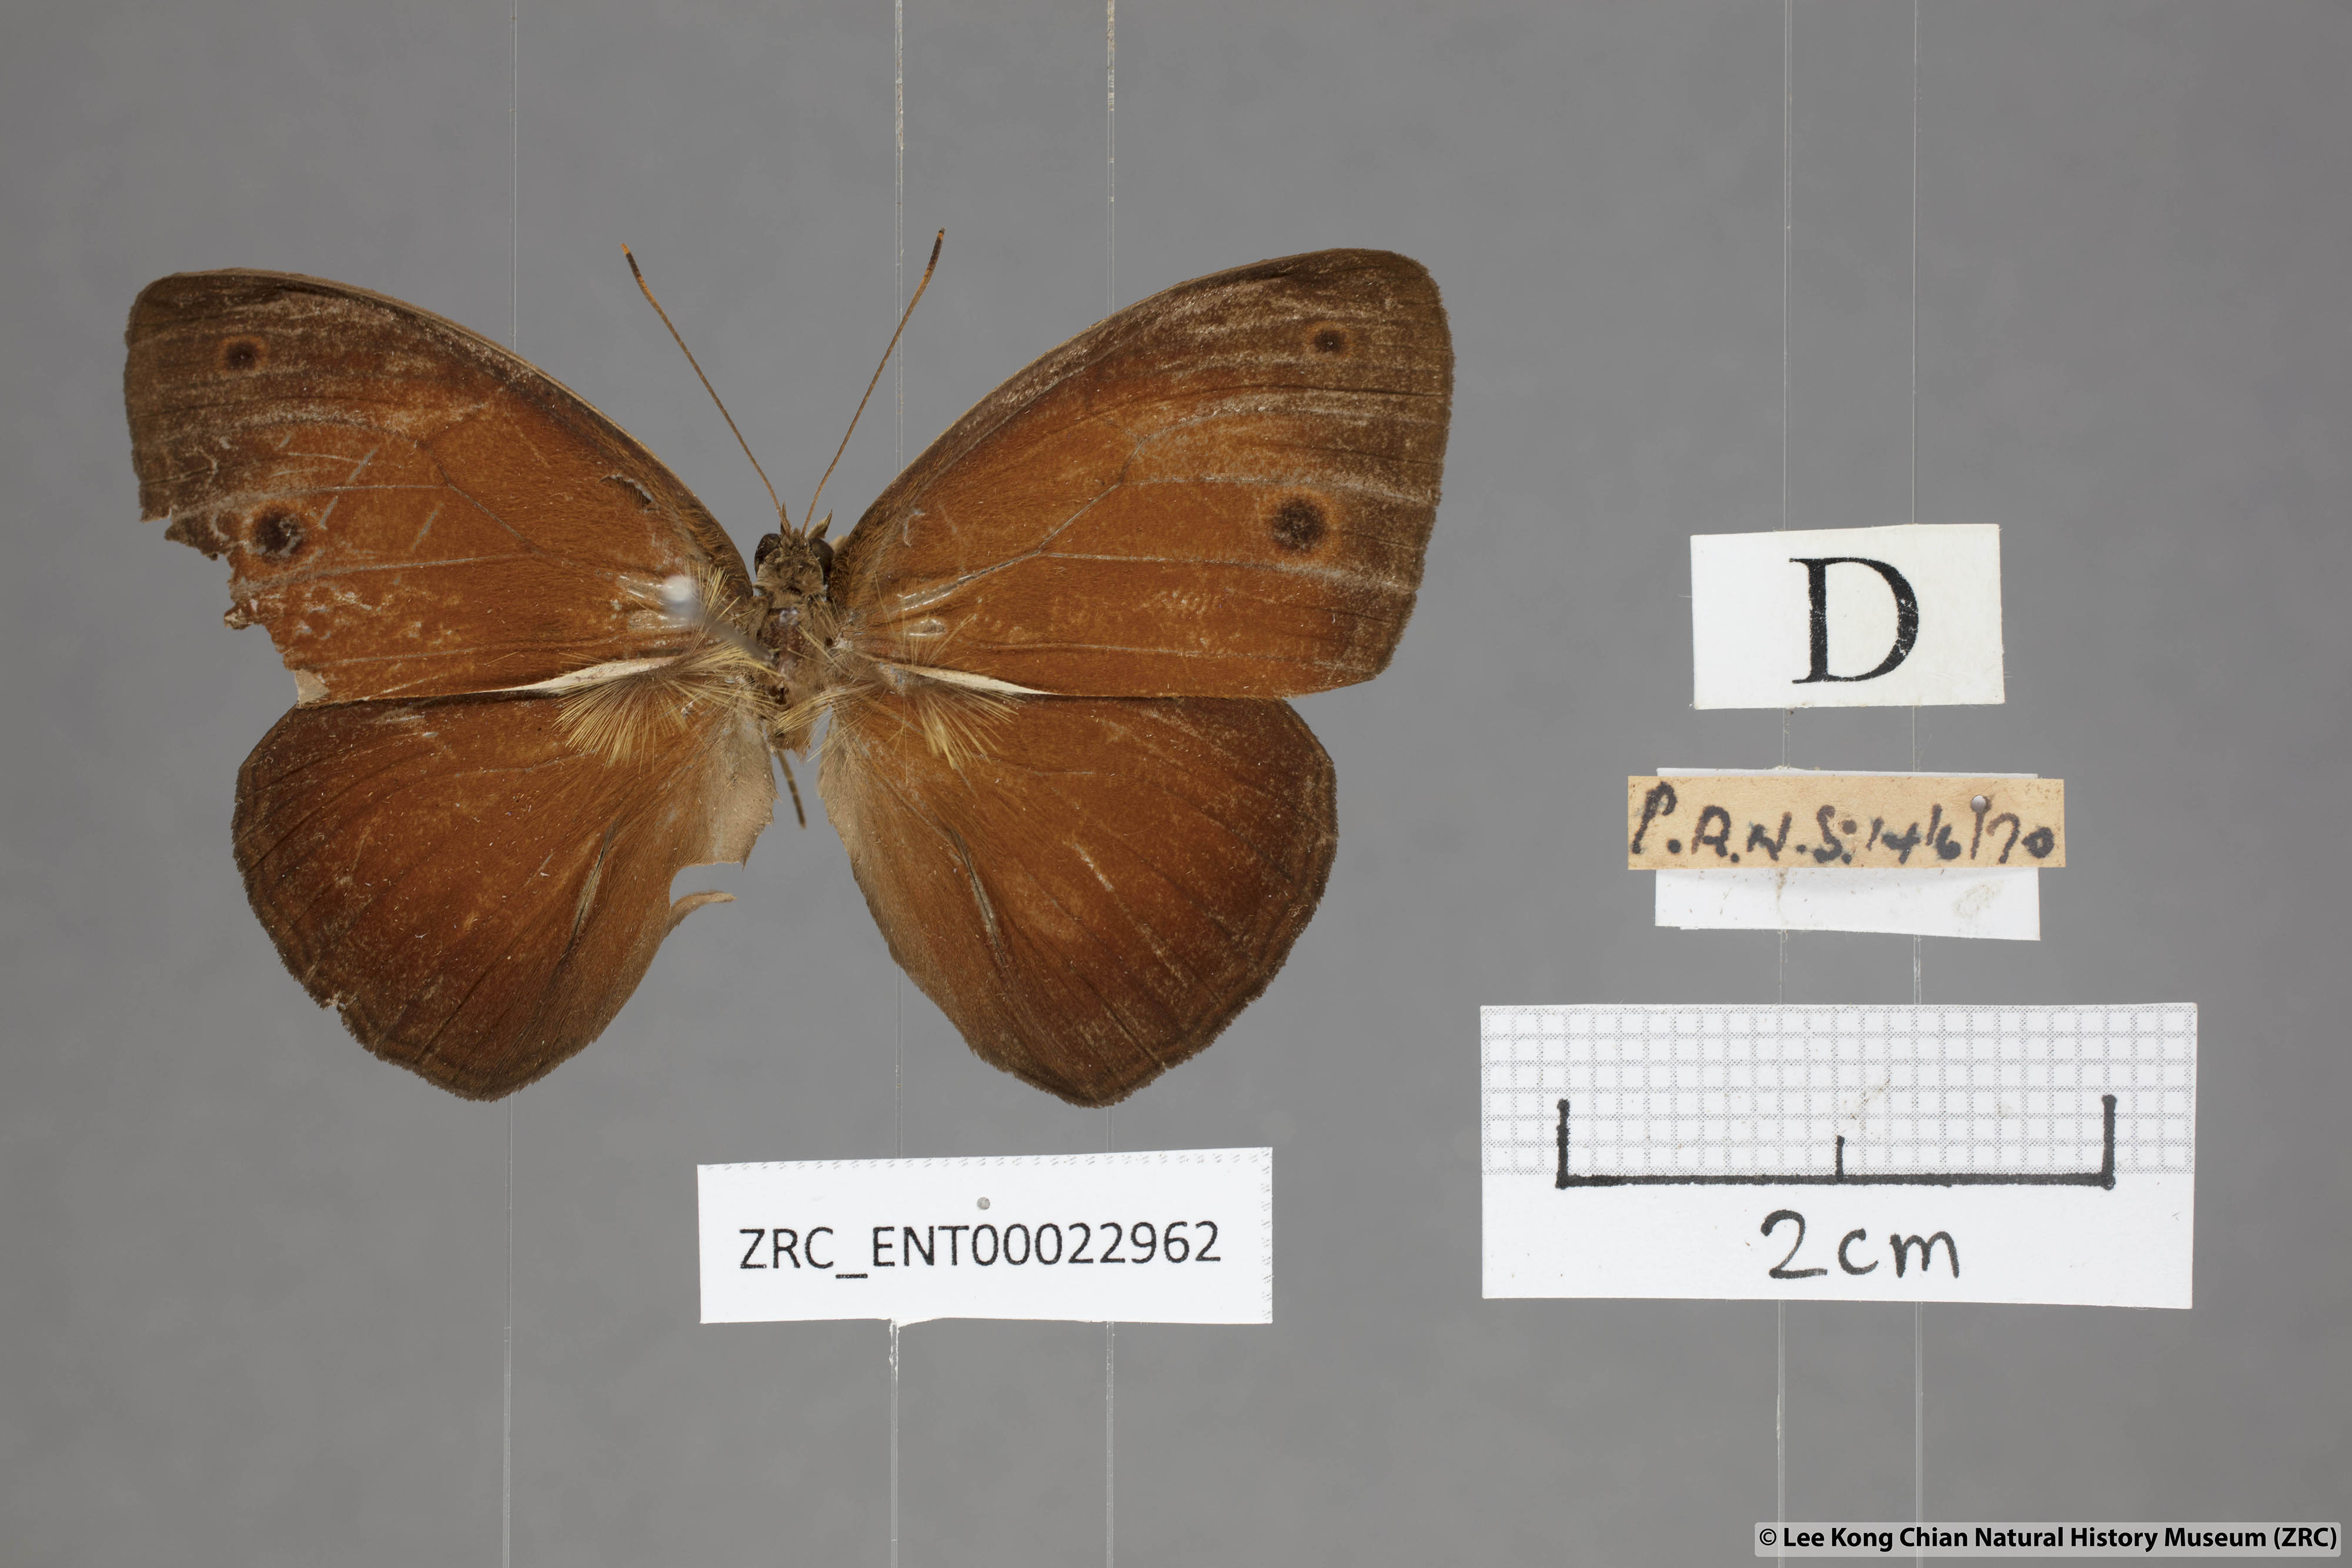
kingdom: Animalia
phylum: Arthropoda
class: Insecta
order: Lepidoptera
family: Nymphalidae
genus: Mycalesis
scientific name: Mycalesis oroatis
